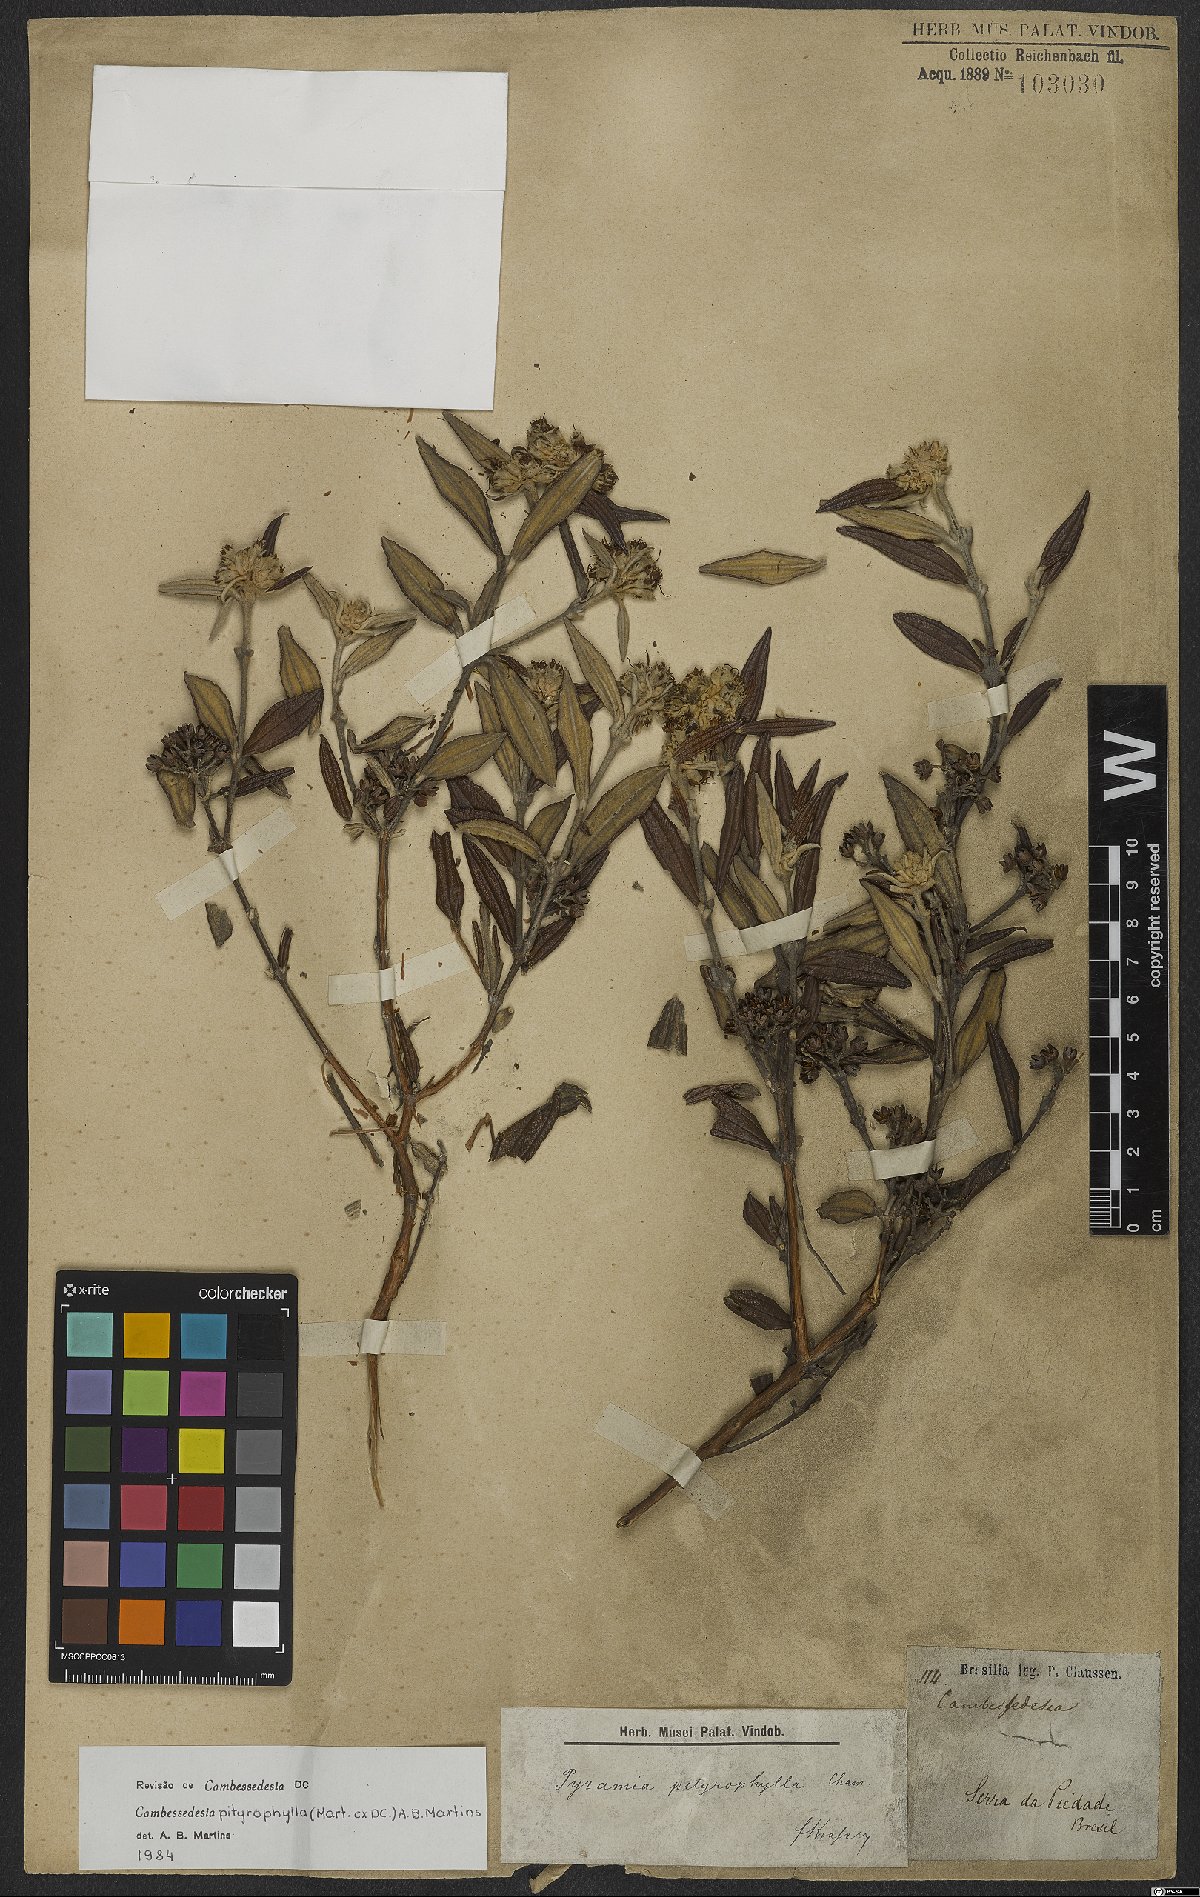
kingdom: Plantae
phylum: Tracheophyta
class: Magnoliopsida
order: Myrtales
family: Melastomataceae
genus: Cambessedesia
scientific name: Cambessedesia pityrophylla
